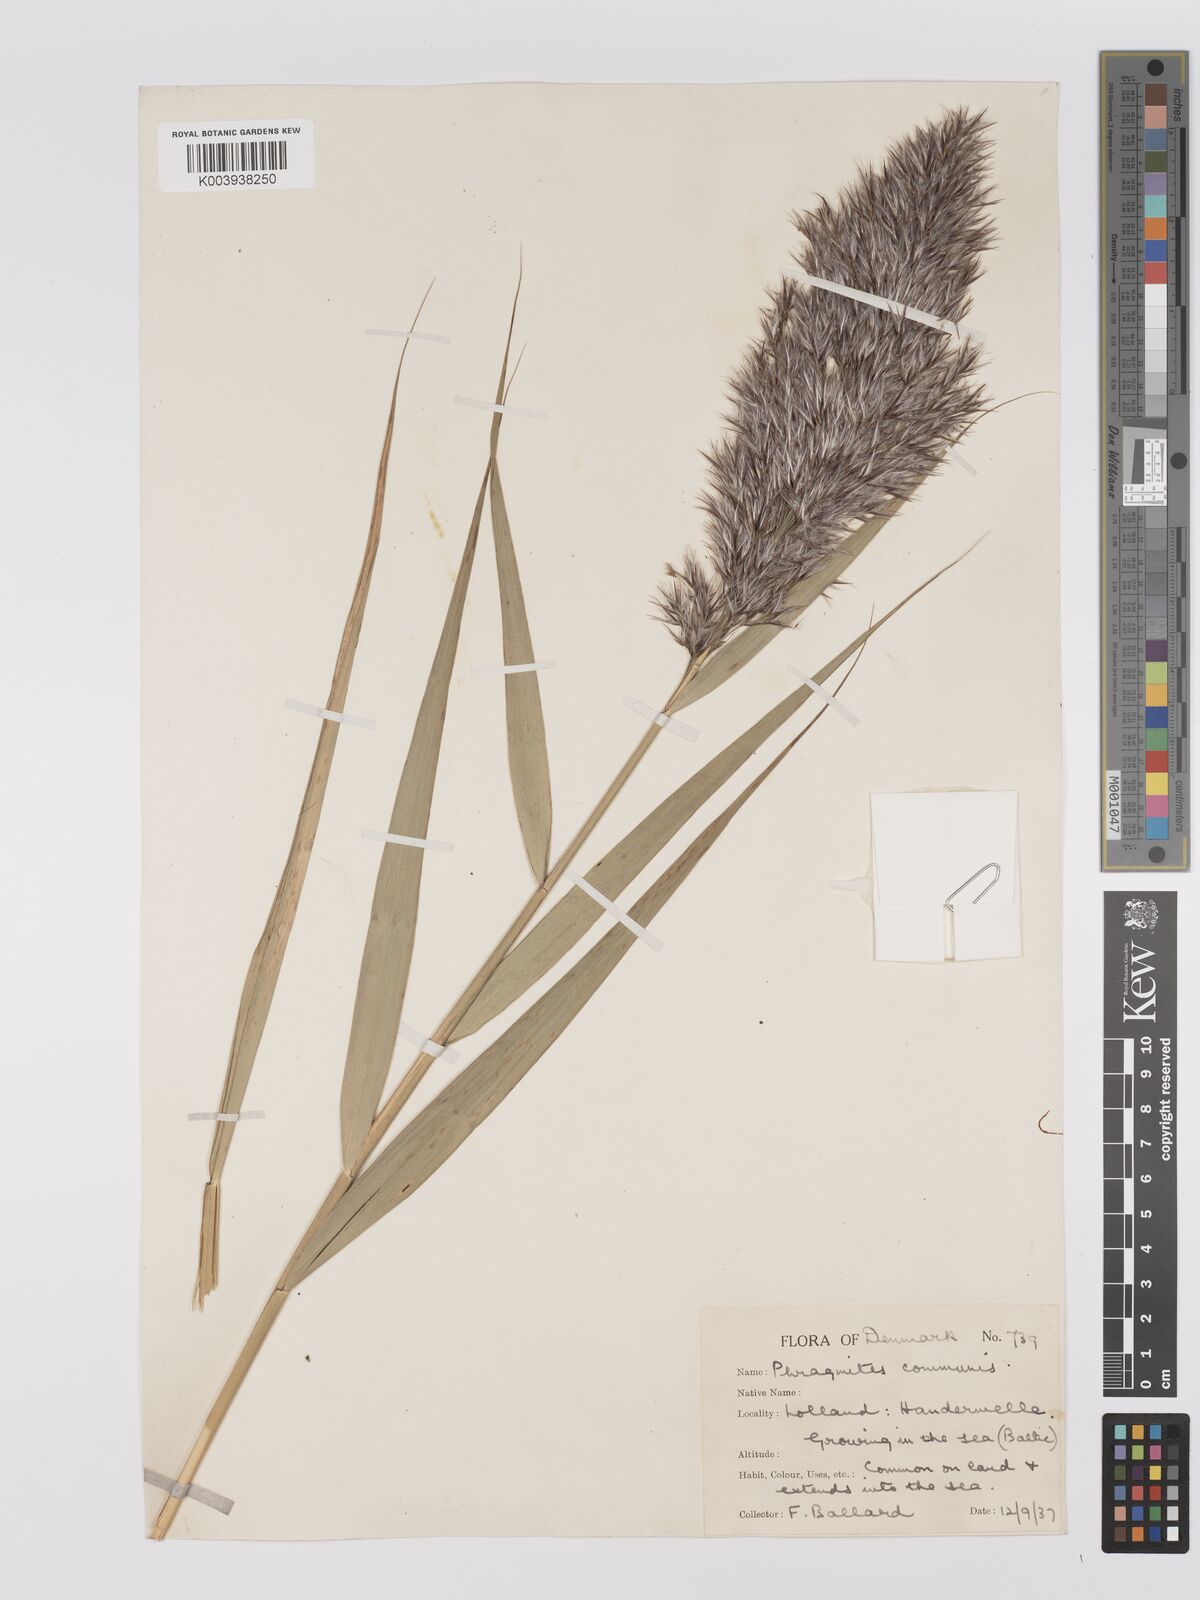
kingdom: Plantae
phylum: Tracheophyta
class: Liliopsida
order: Poales
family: Poaceae
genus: Phragmites
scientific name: Phragmites australis
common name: Common reed
